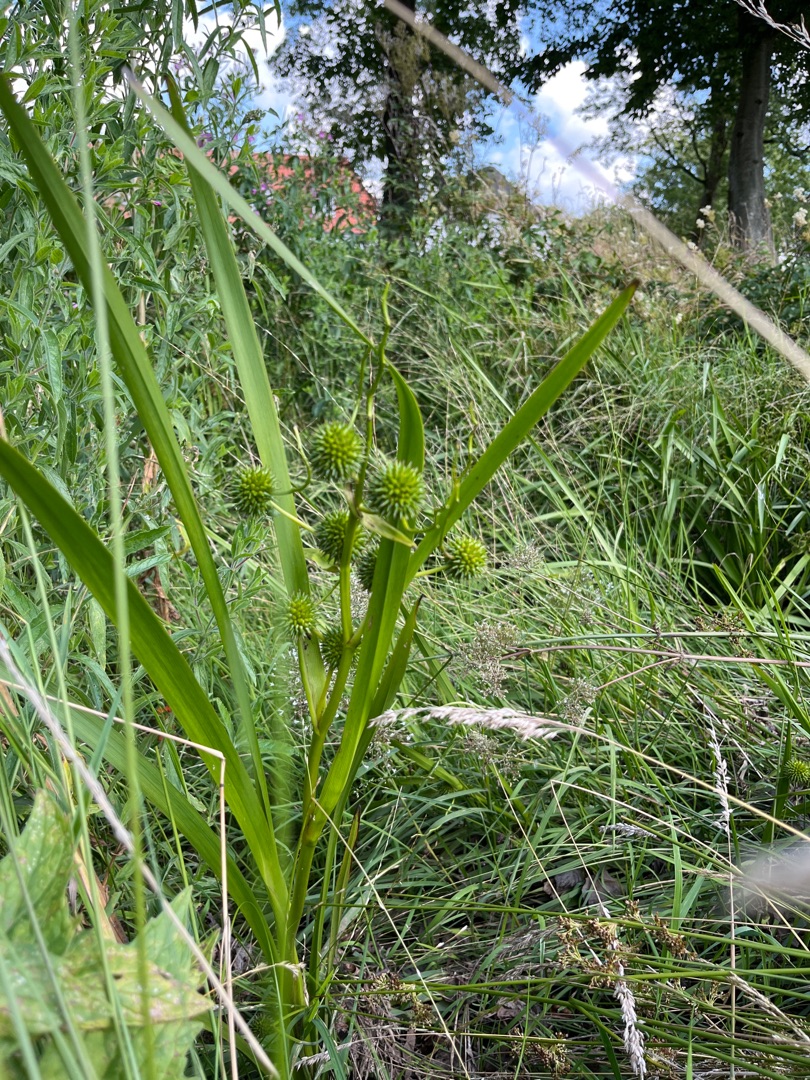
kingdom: Plantae
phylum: Tracheophyta
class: Liliopsida
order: Poales
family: Typhaceae
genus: Sparganium
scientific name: Sparganium erectum
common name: Grenet pindsvineknop
